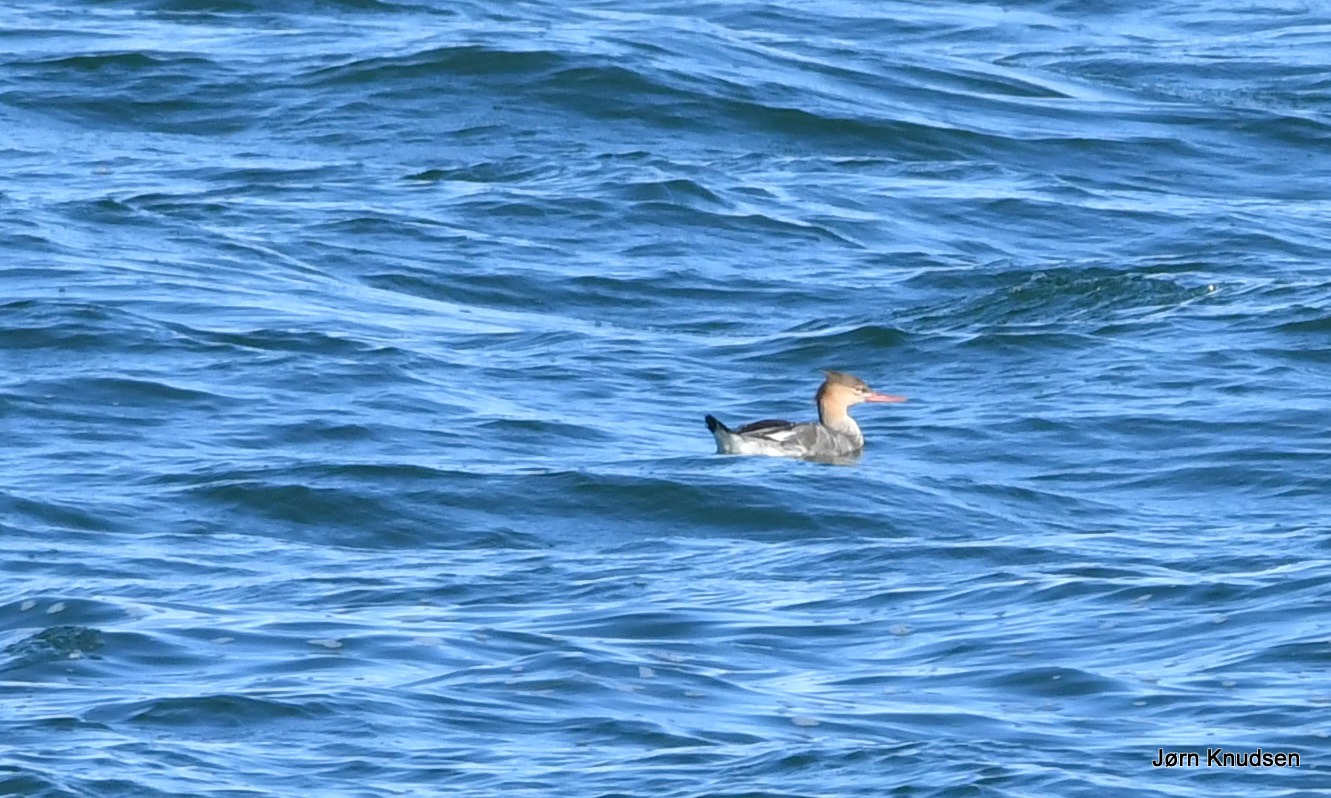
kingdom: Animalia
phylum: Chordata
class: Aves
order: Anseriformes
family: Anatidae
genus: Mergus
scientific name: Mergus serrator
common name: Toppet skallesluger
